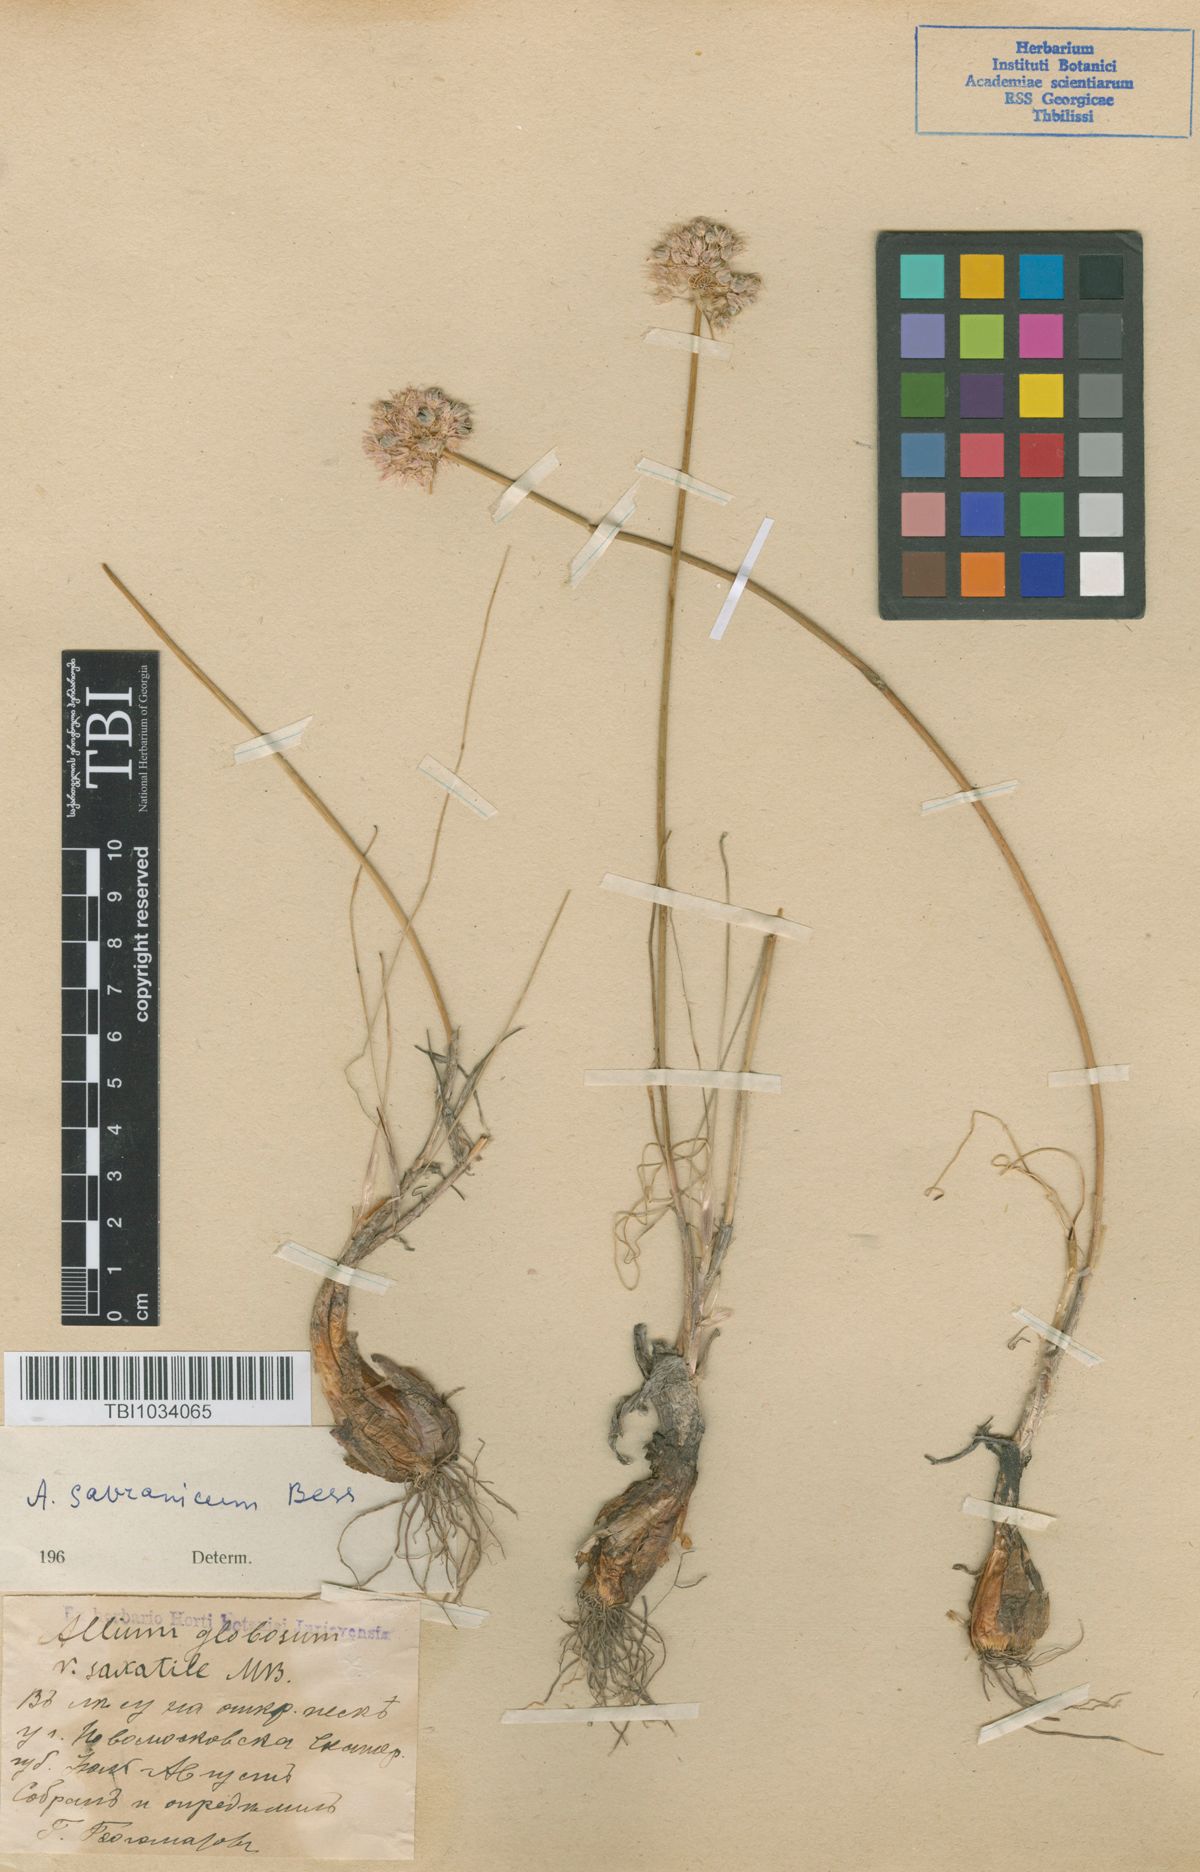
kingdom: Plantae
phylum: Tracheophyta
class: Liliopsida
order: Asparagales
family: Amaryllidaceae
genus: Allium
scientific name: Allium saxatile
